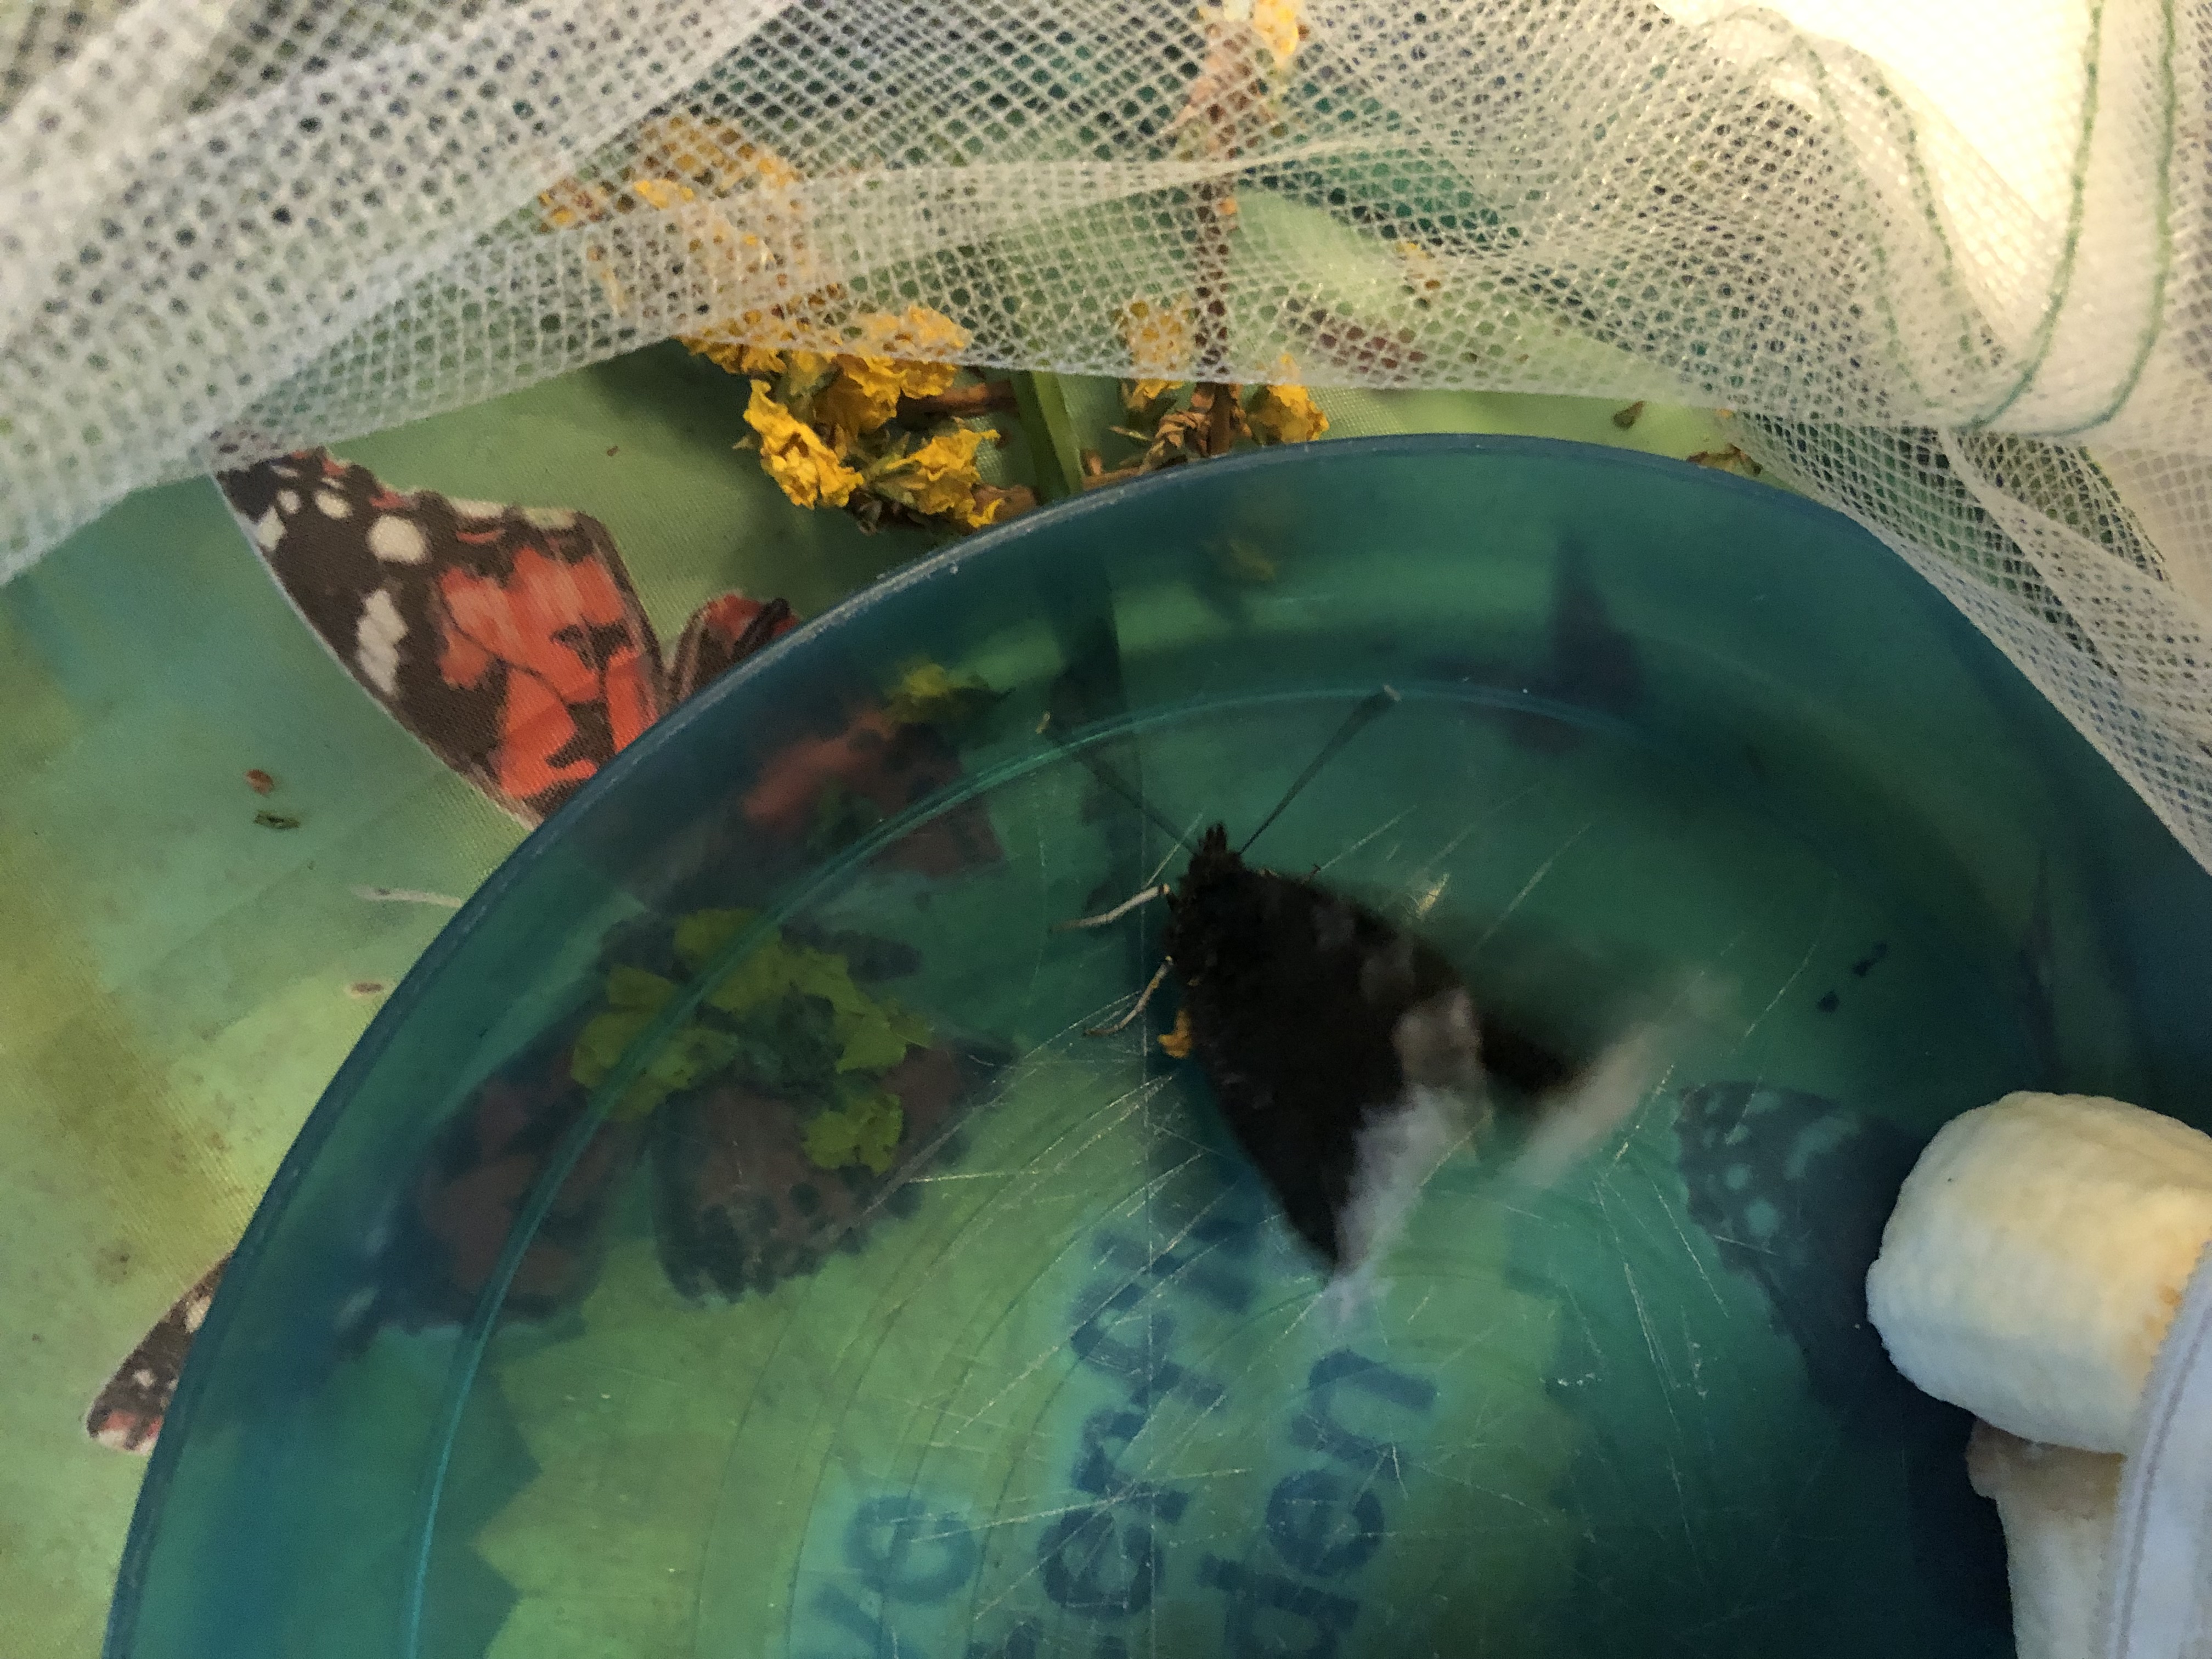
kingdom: Animalia
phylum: Arthropoda
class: Insecta
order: Lepidoptera
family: Nymphalidae
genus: Nymphalis
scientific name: Nymphalis antiopa
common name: Sørgekåbe
